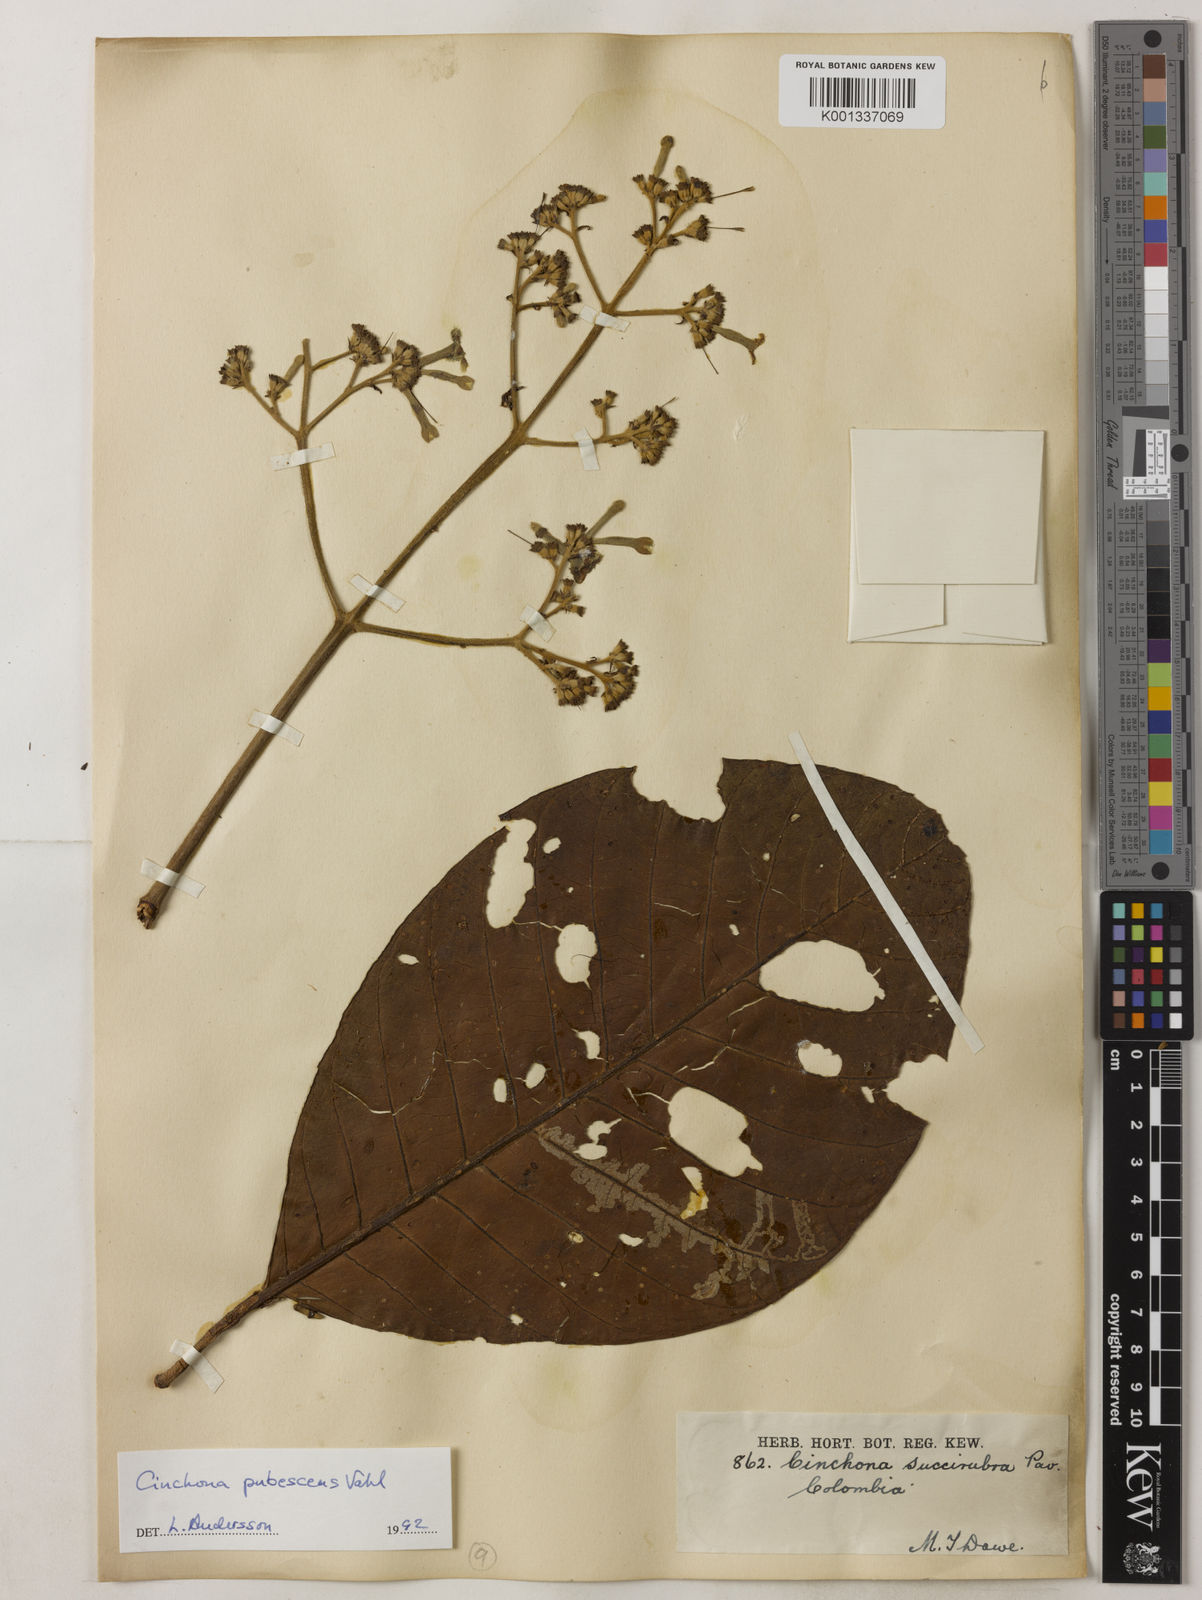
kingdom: Plantae
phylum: Tracheophyta
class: Magnoliopsida
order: Gentianales
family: Rubiaceae
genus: Cinchona
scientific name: Cinchona pubescens
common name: Quinine
